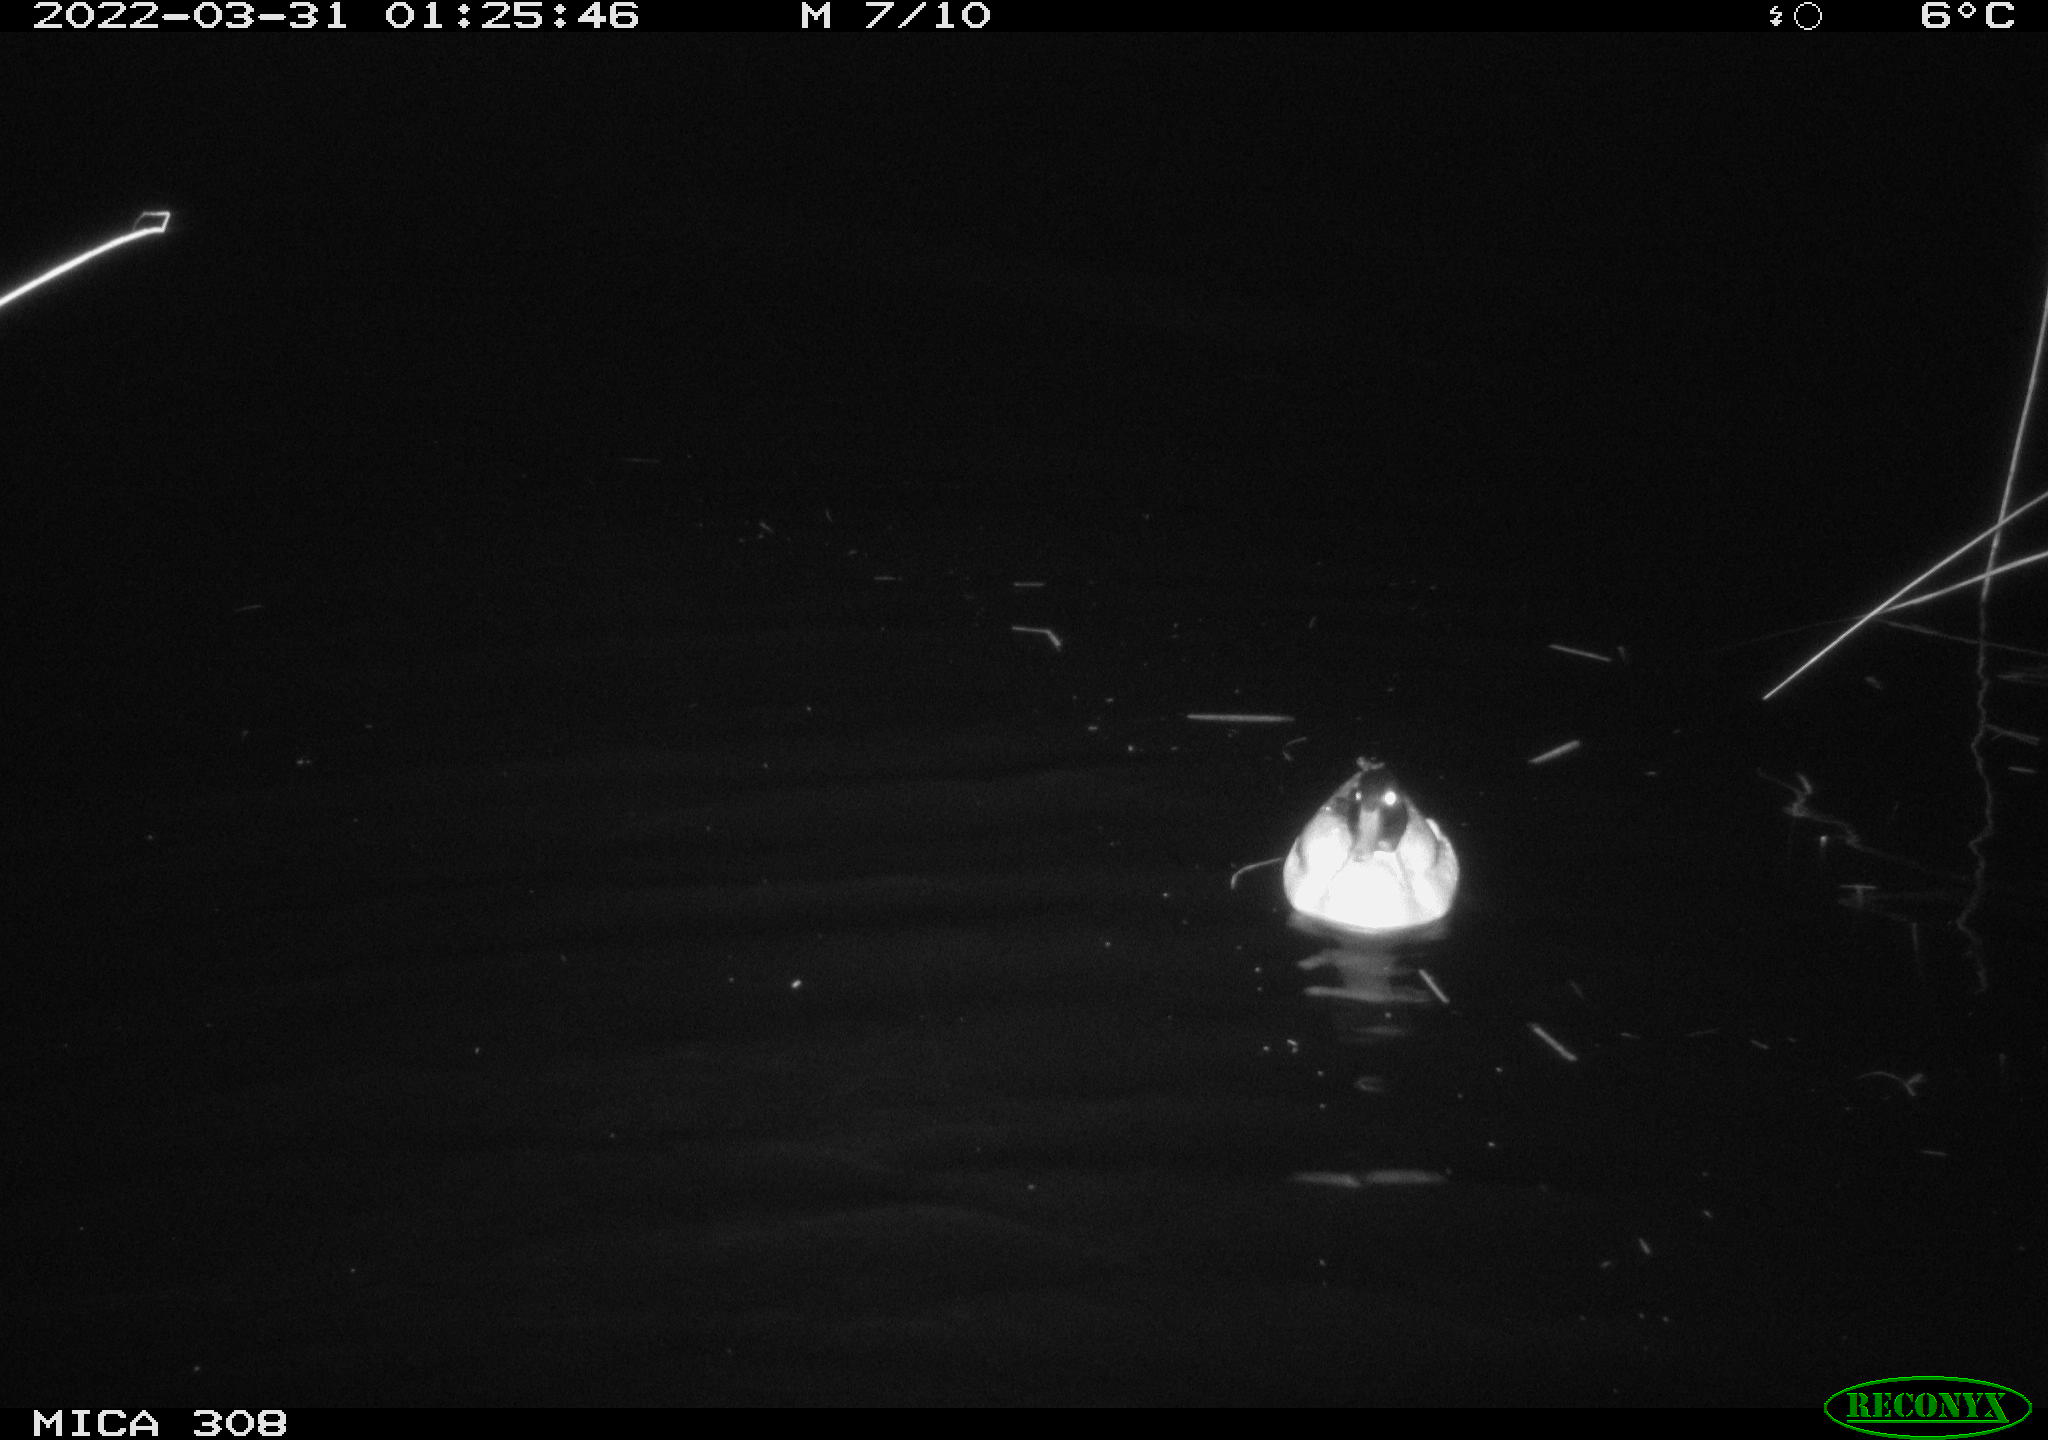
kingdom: Animalia
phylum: Chordata
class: Aves
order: Anseriformes
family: Anatidae
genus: Anas
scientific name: Anas platyrhynchos
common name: Mallard
